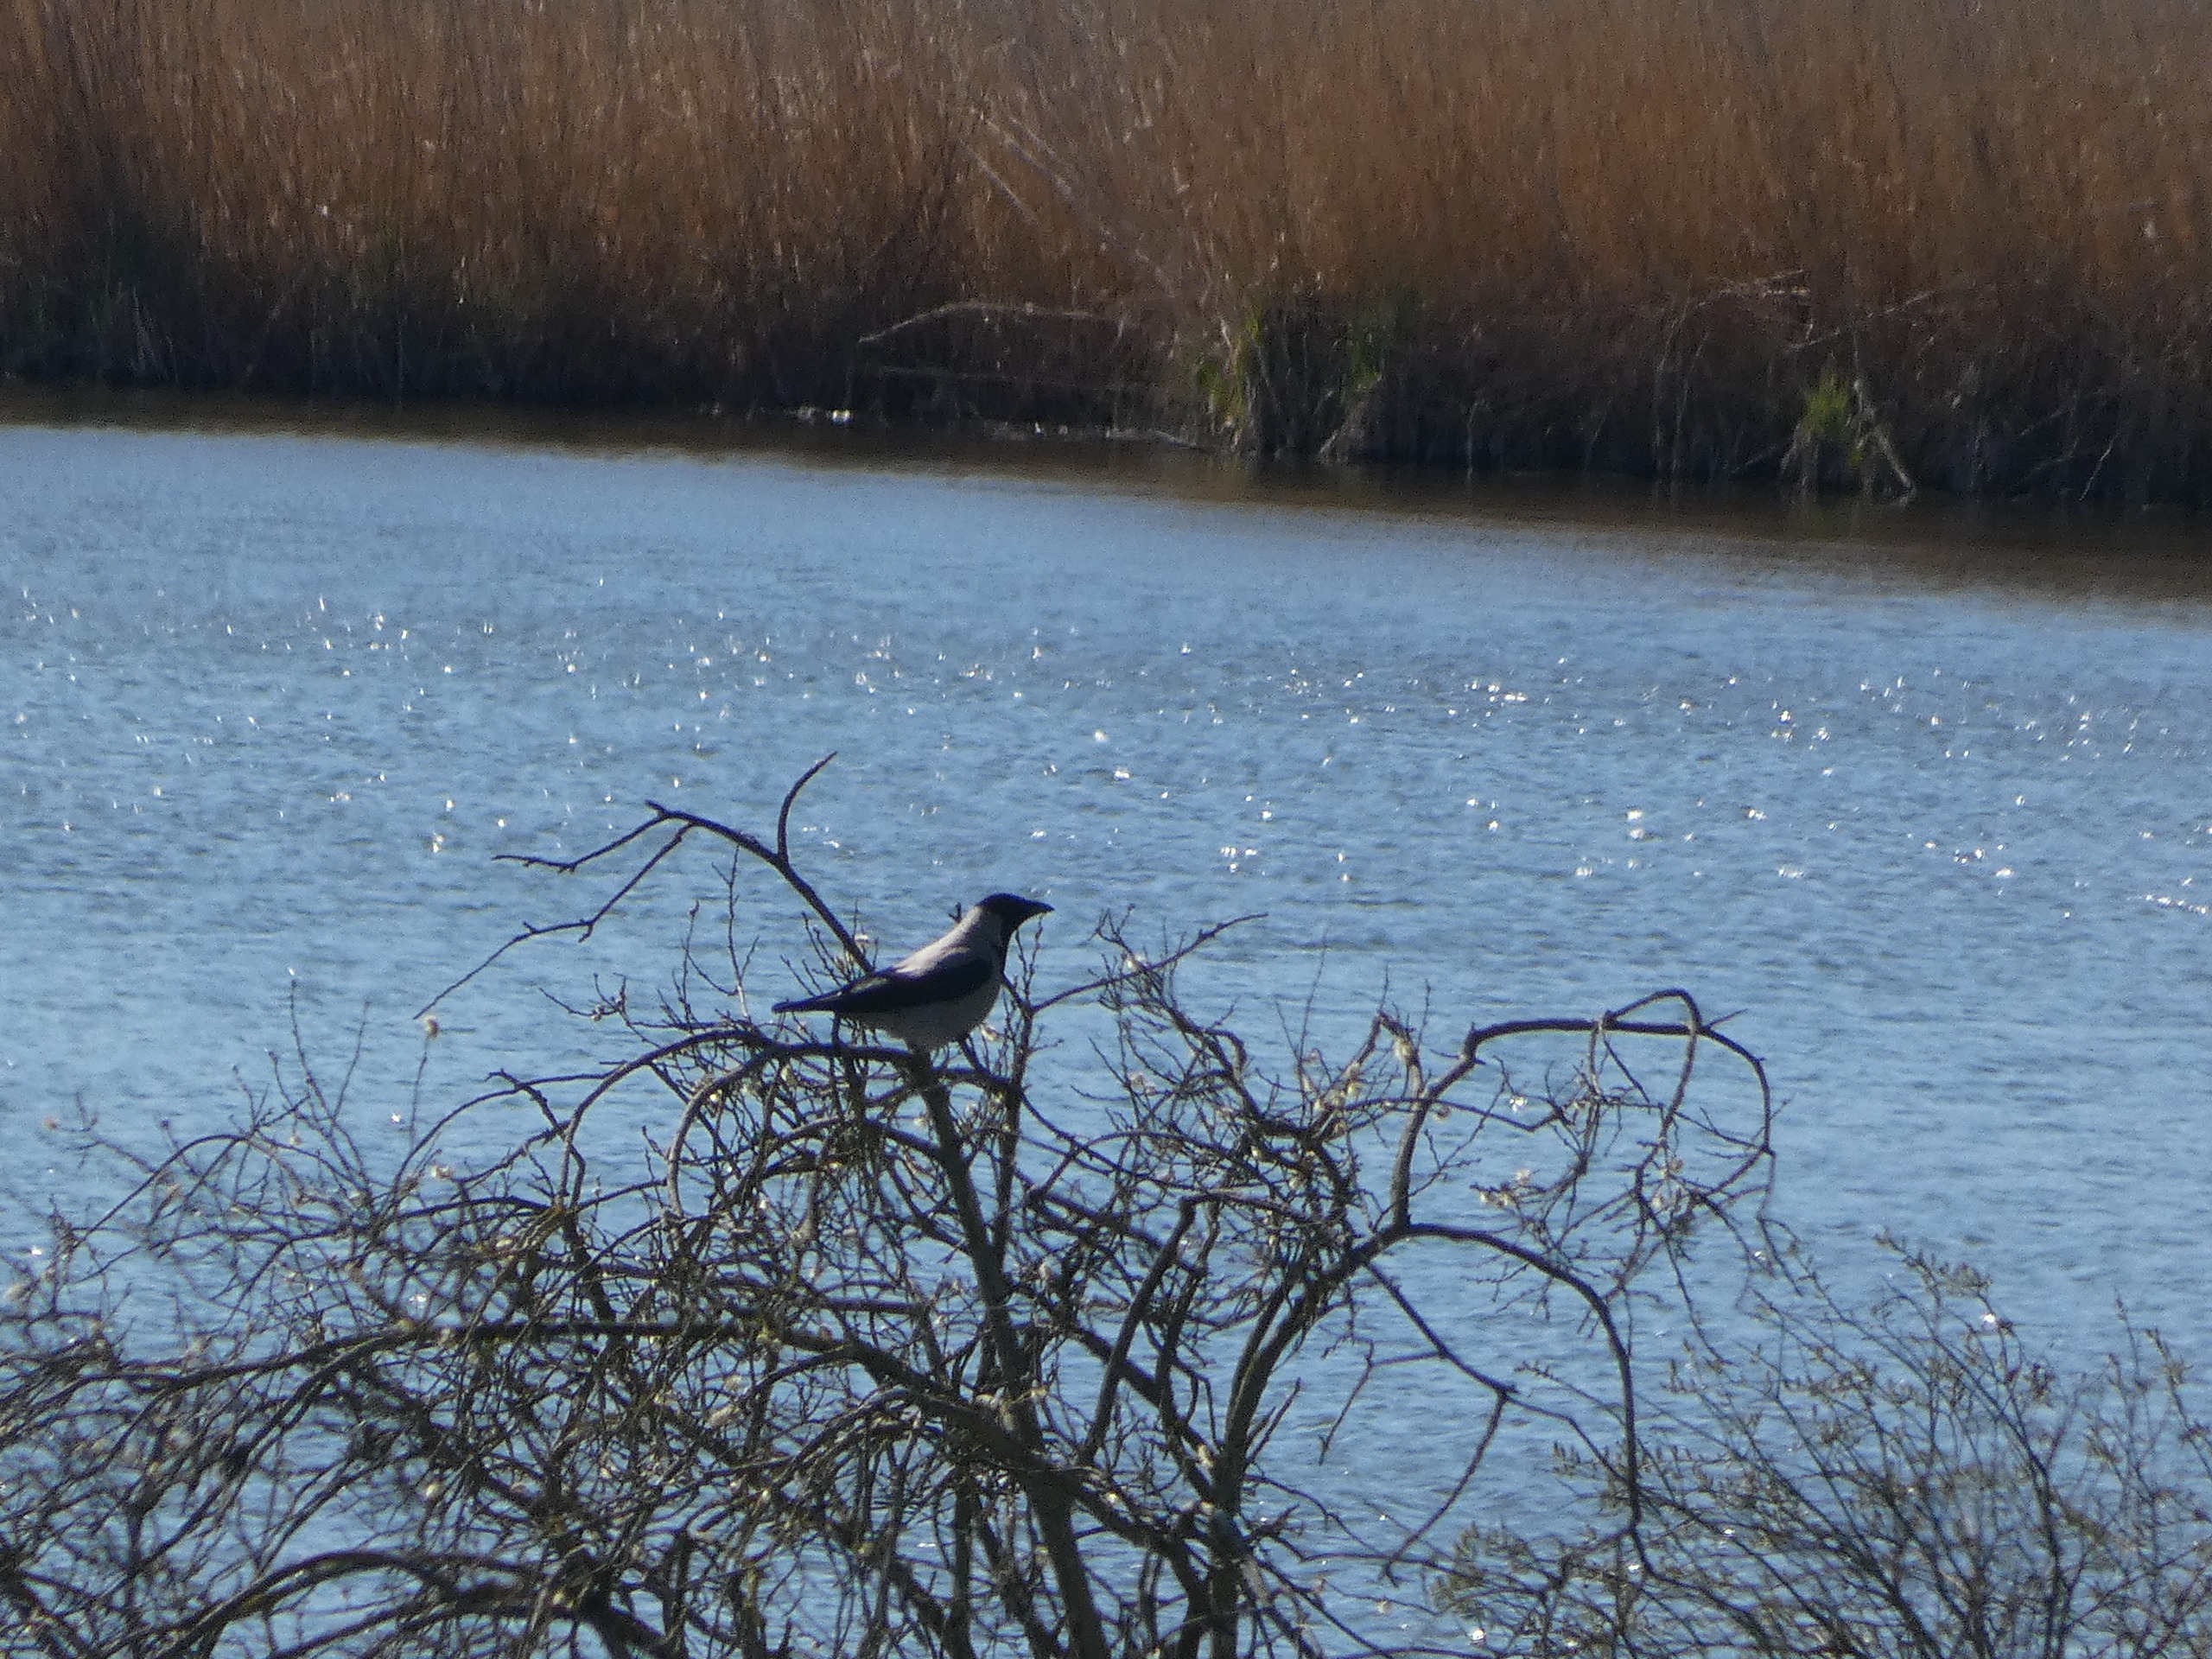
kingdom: Animalia
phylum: Chordata
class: Aves
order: Passeriformes
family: Corvidae
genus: Corvus
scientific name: Corvus cornix
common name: Gråkrage
